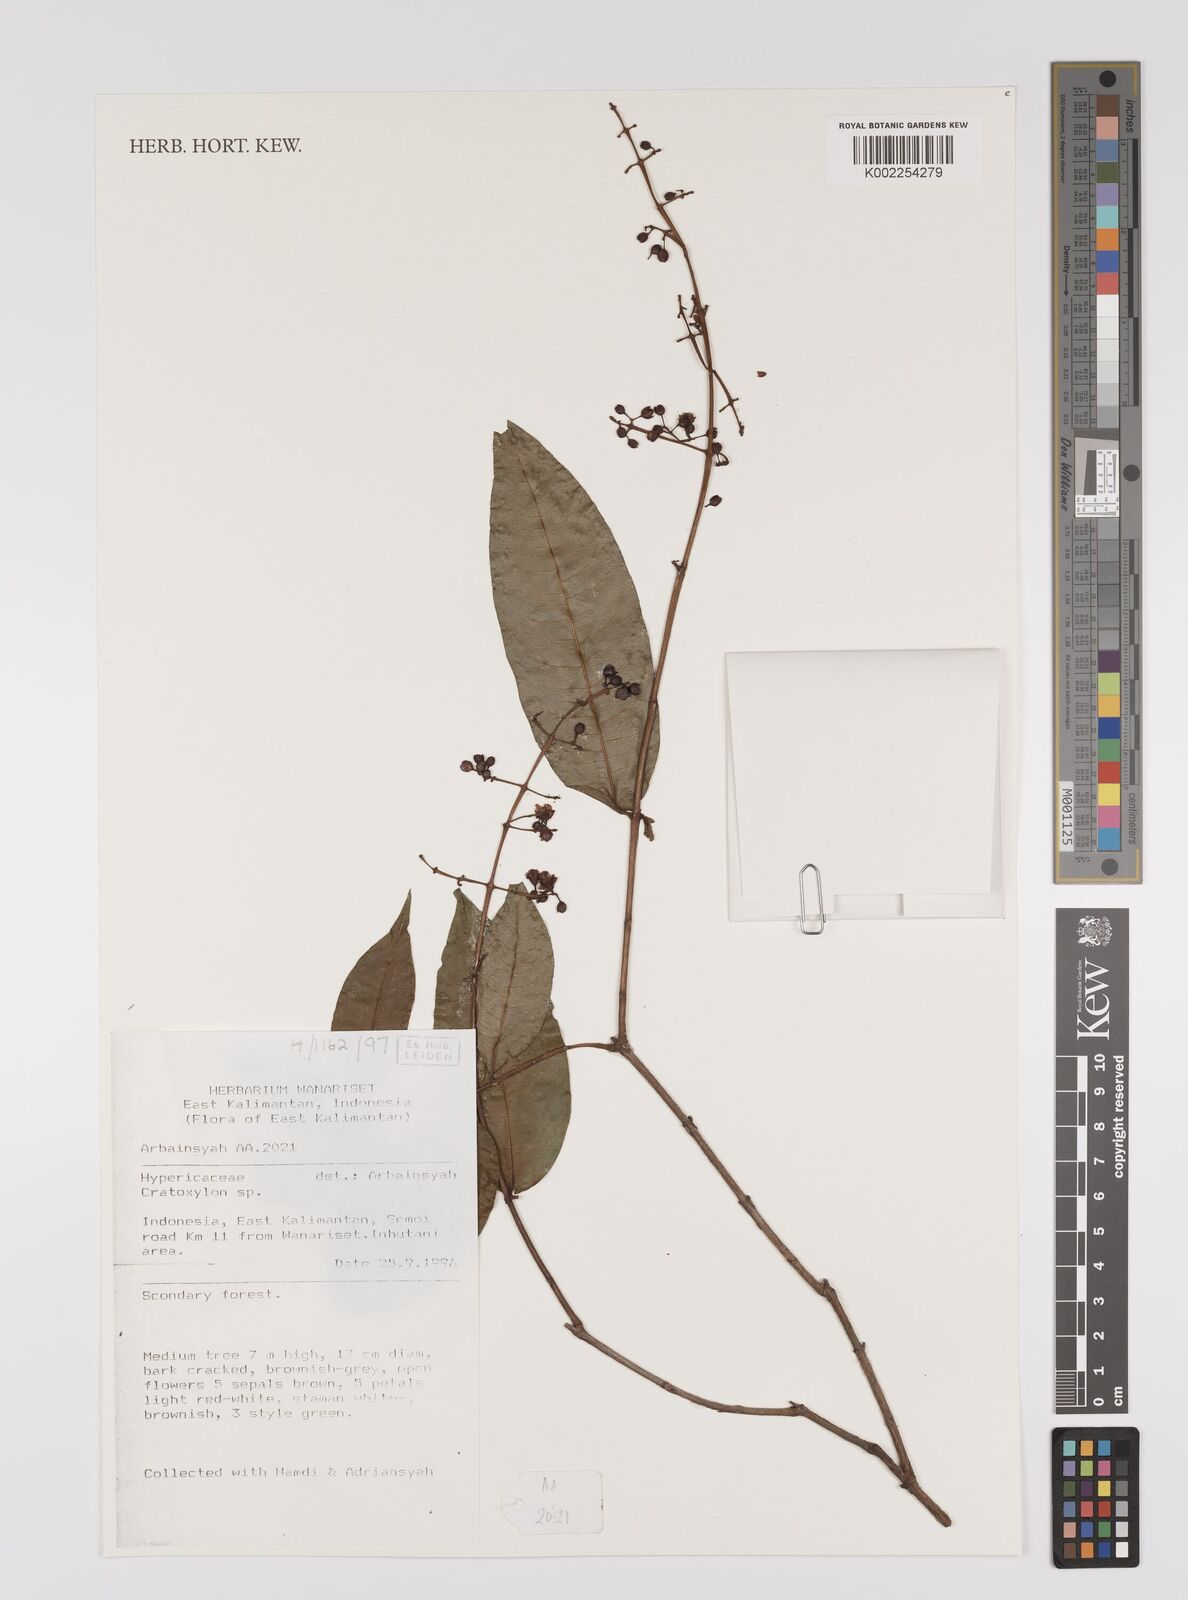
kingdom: Plantae
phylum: Tracheophyta
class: Magnoliopsida
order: Malpighiales
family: Hypericaceae
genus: Cratoxylum
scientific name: Cratoxylum
